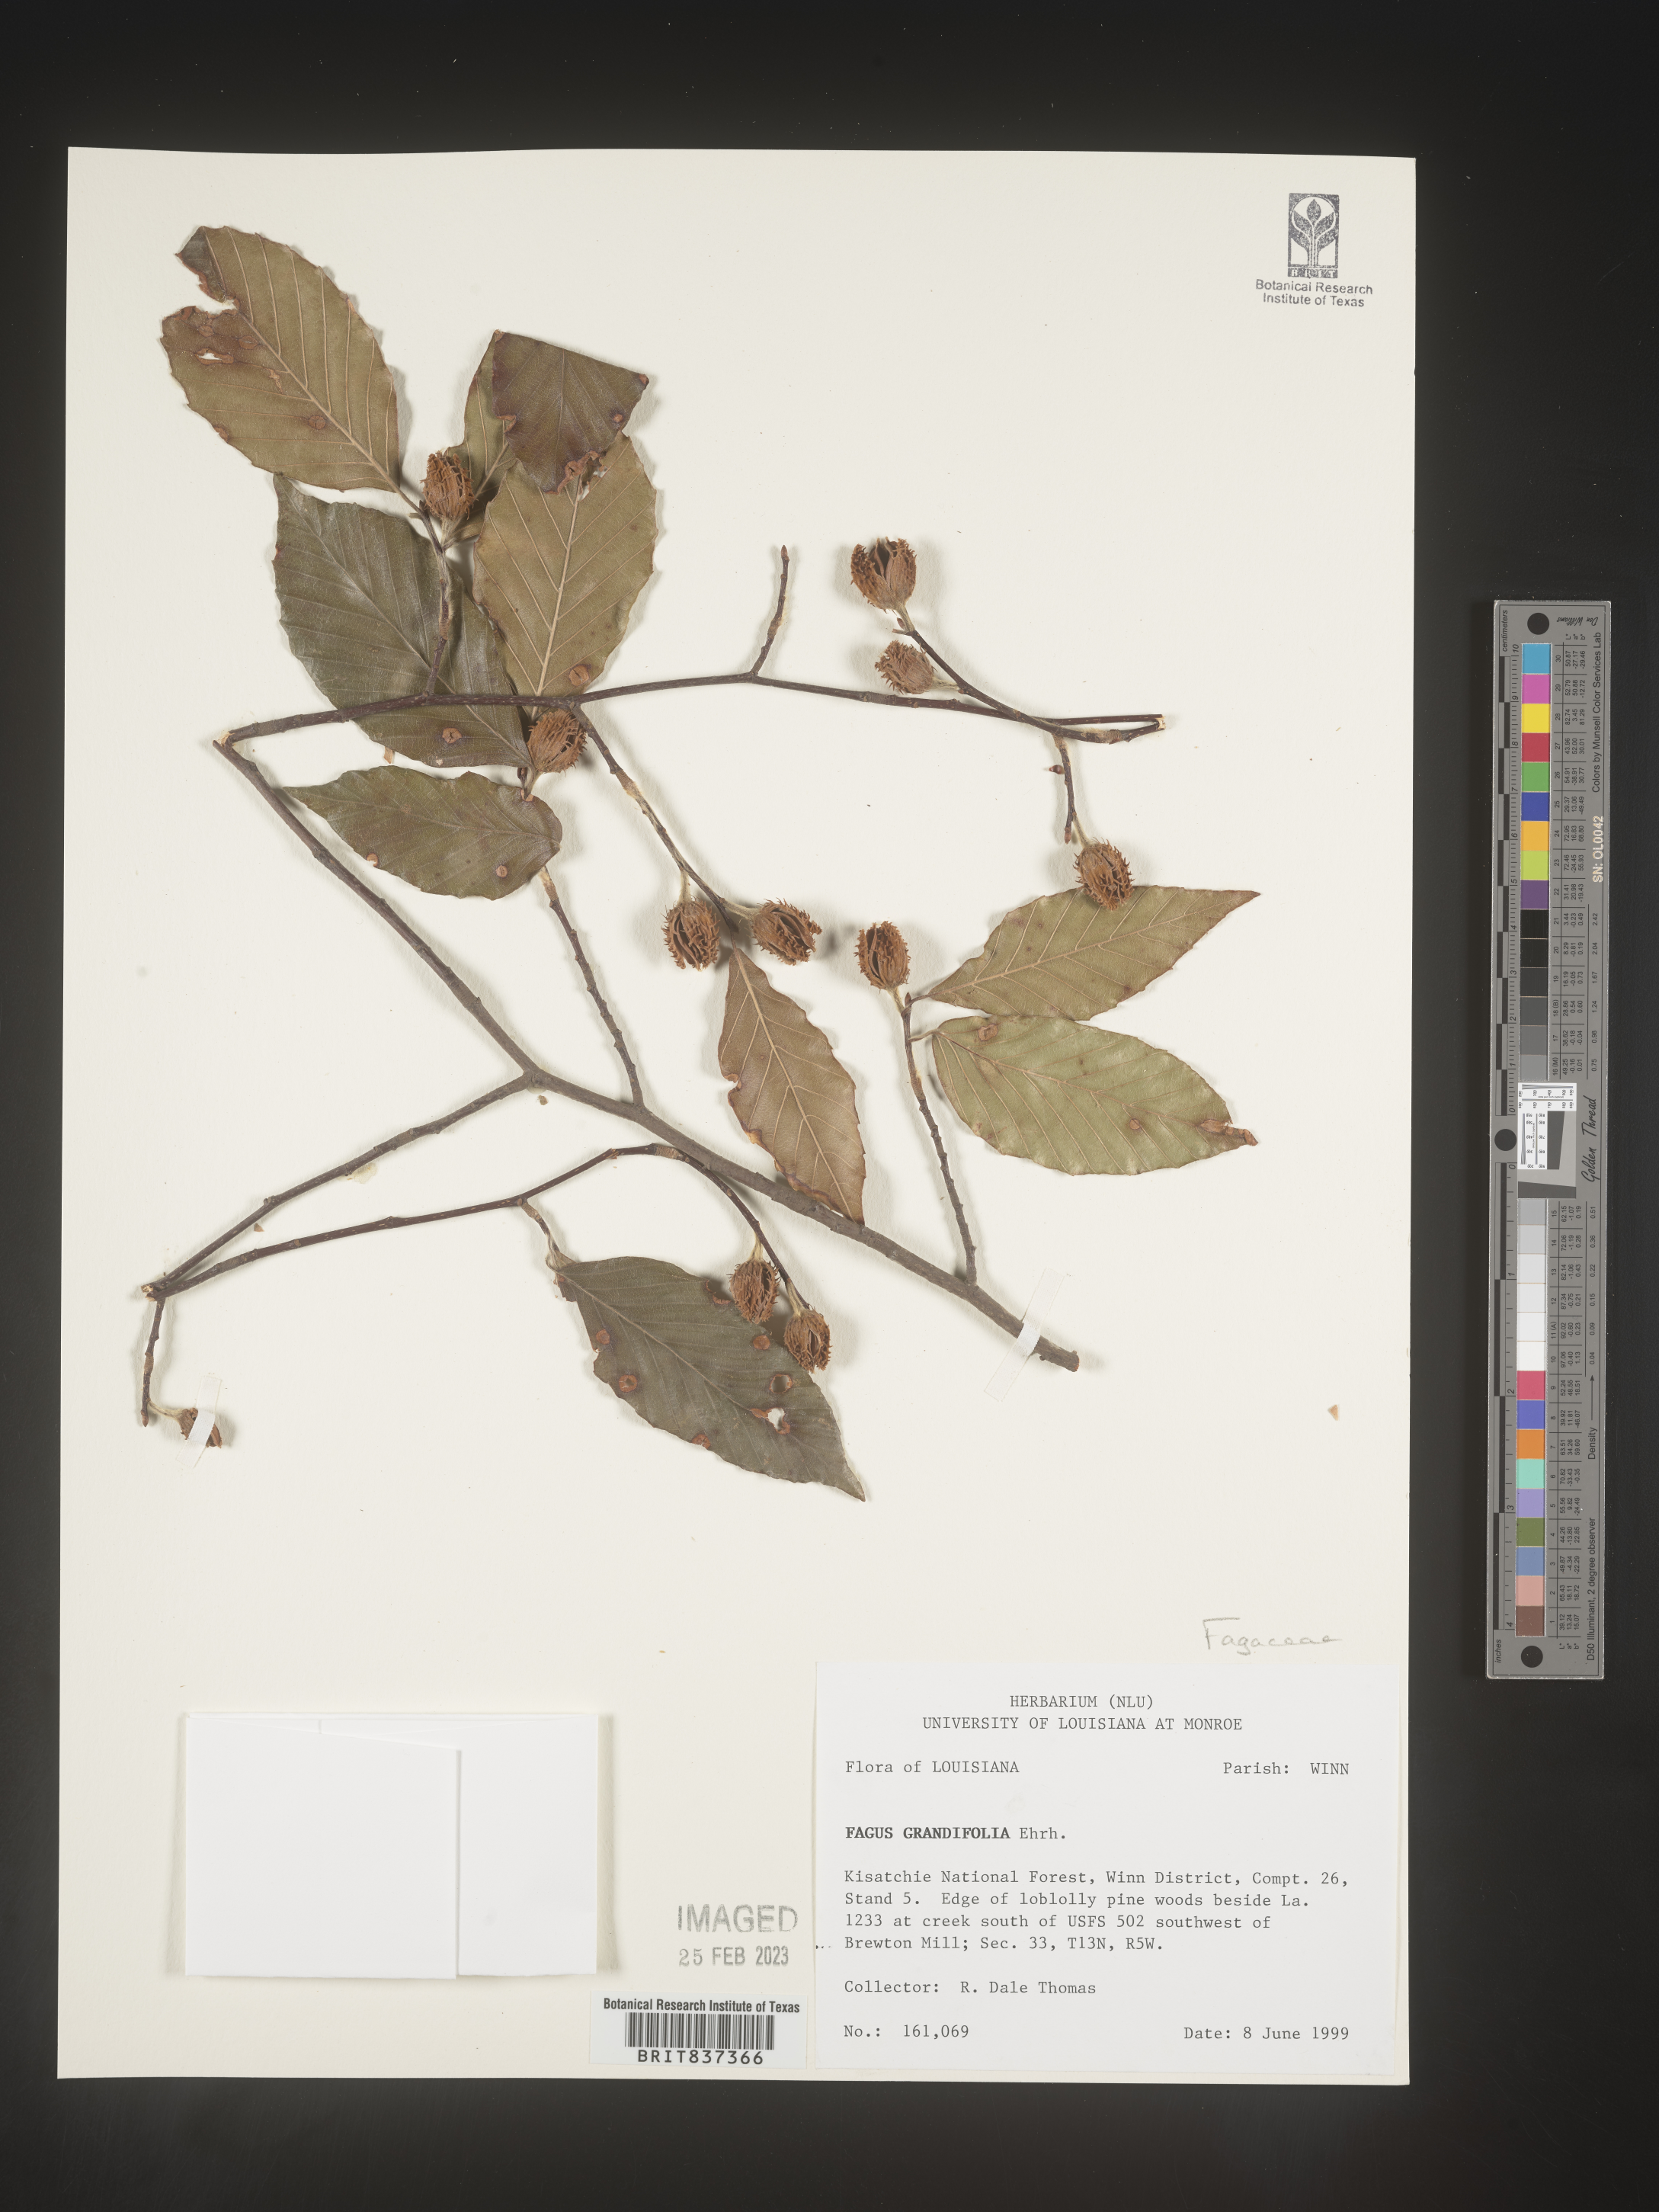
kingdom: Plantae
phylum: Tracheophyta
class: Magnoliopsida
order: Fagales
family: Fagaceae
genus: Fagus
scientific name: Fagus grandifolia
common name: American beech
